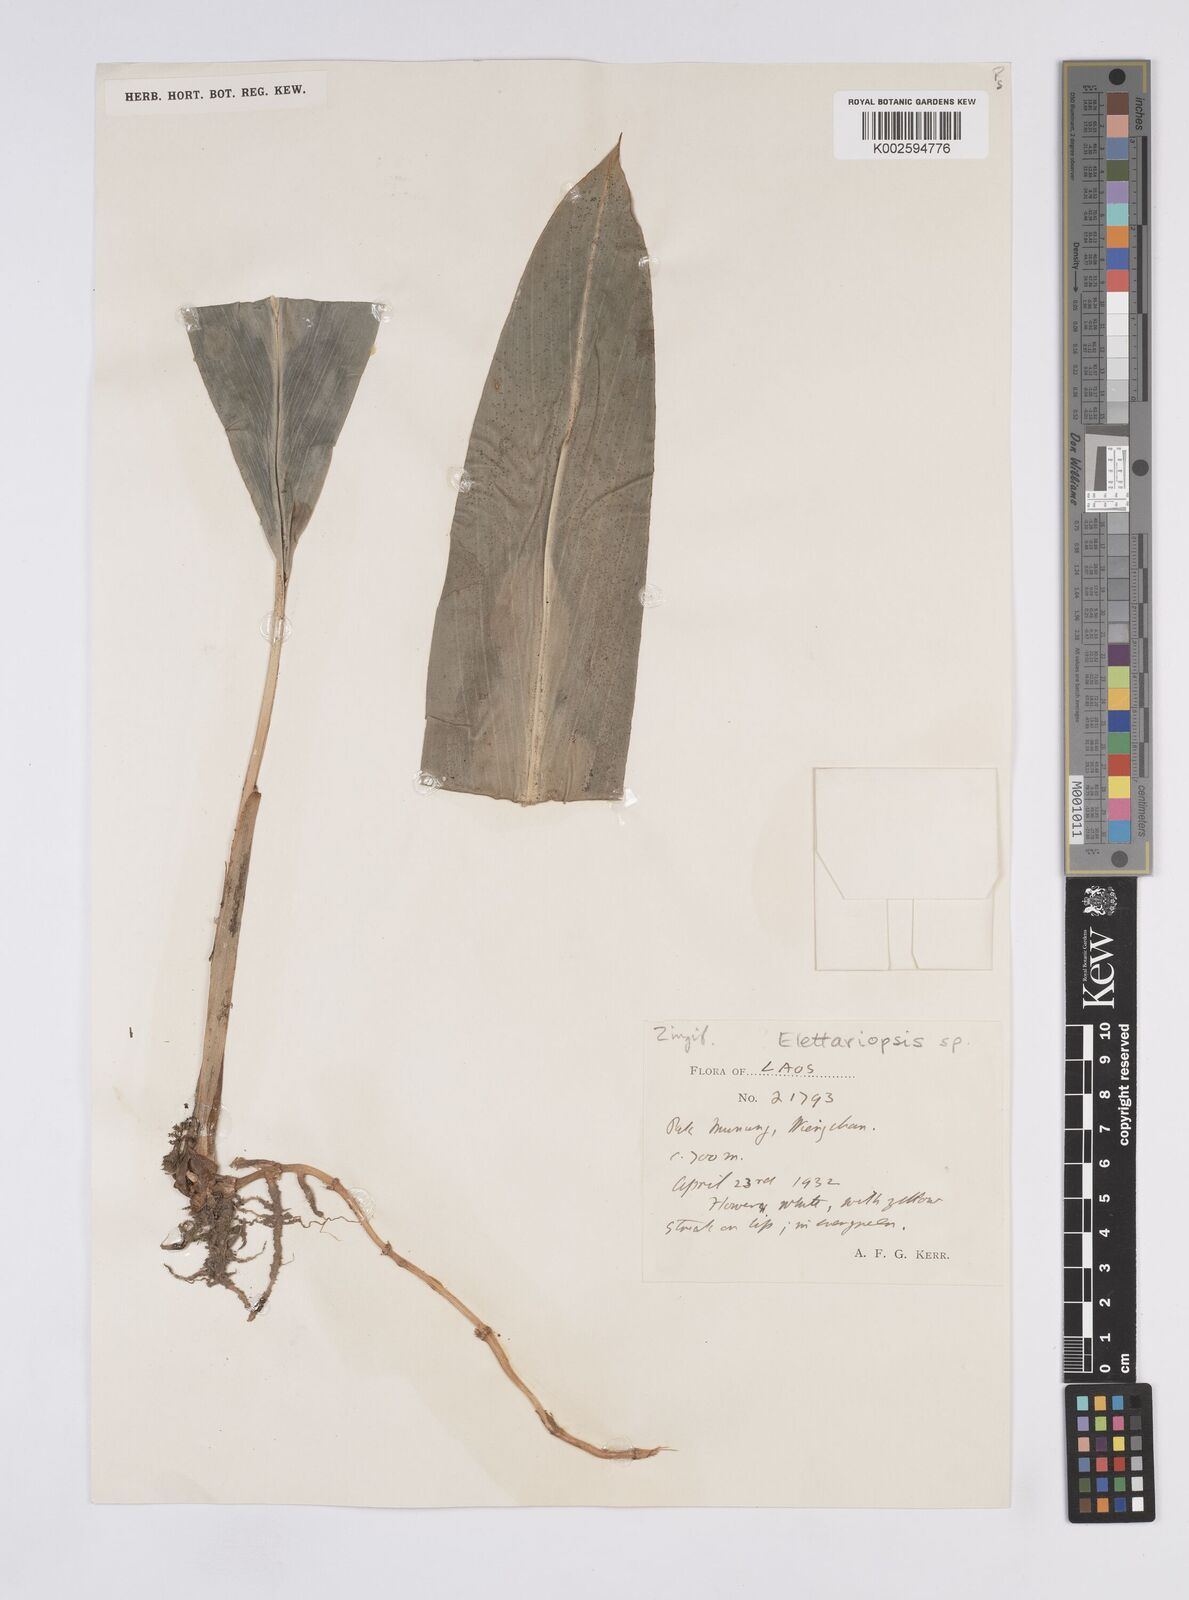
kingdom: Plantae
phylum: Tracheophyta
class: Liliopsida
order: Zingiberales
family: Zingiberaceae
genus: Amomum
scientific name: Amomum
